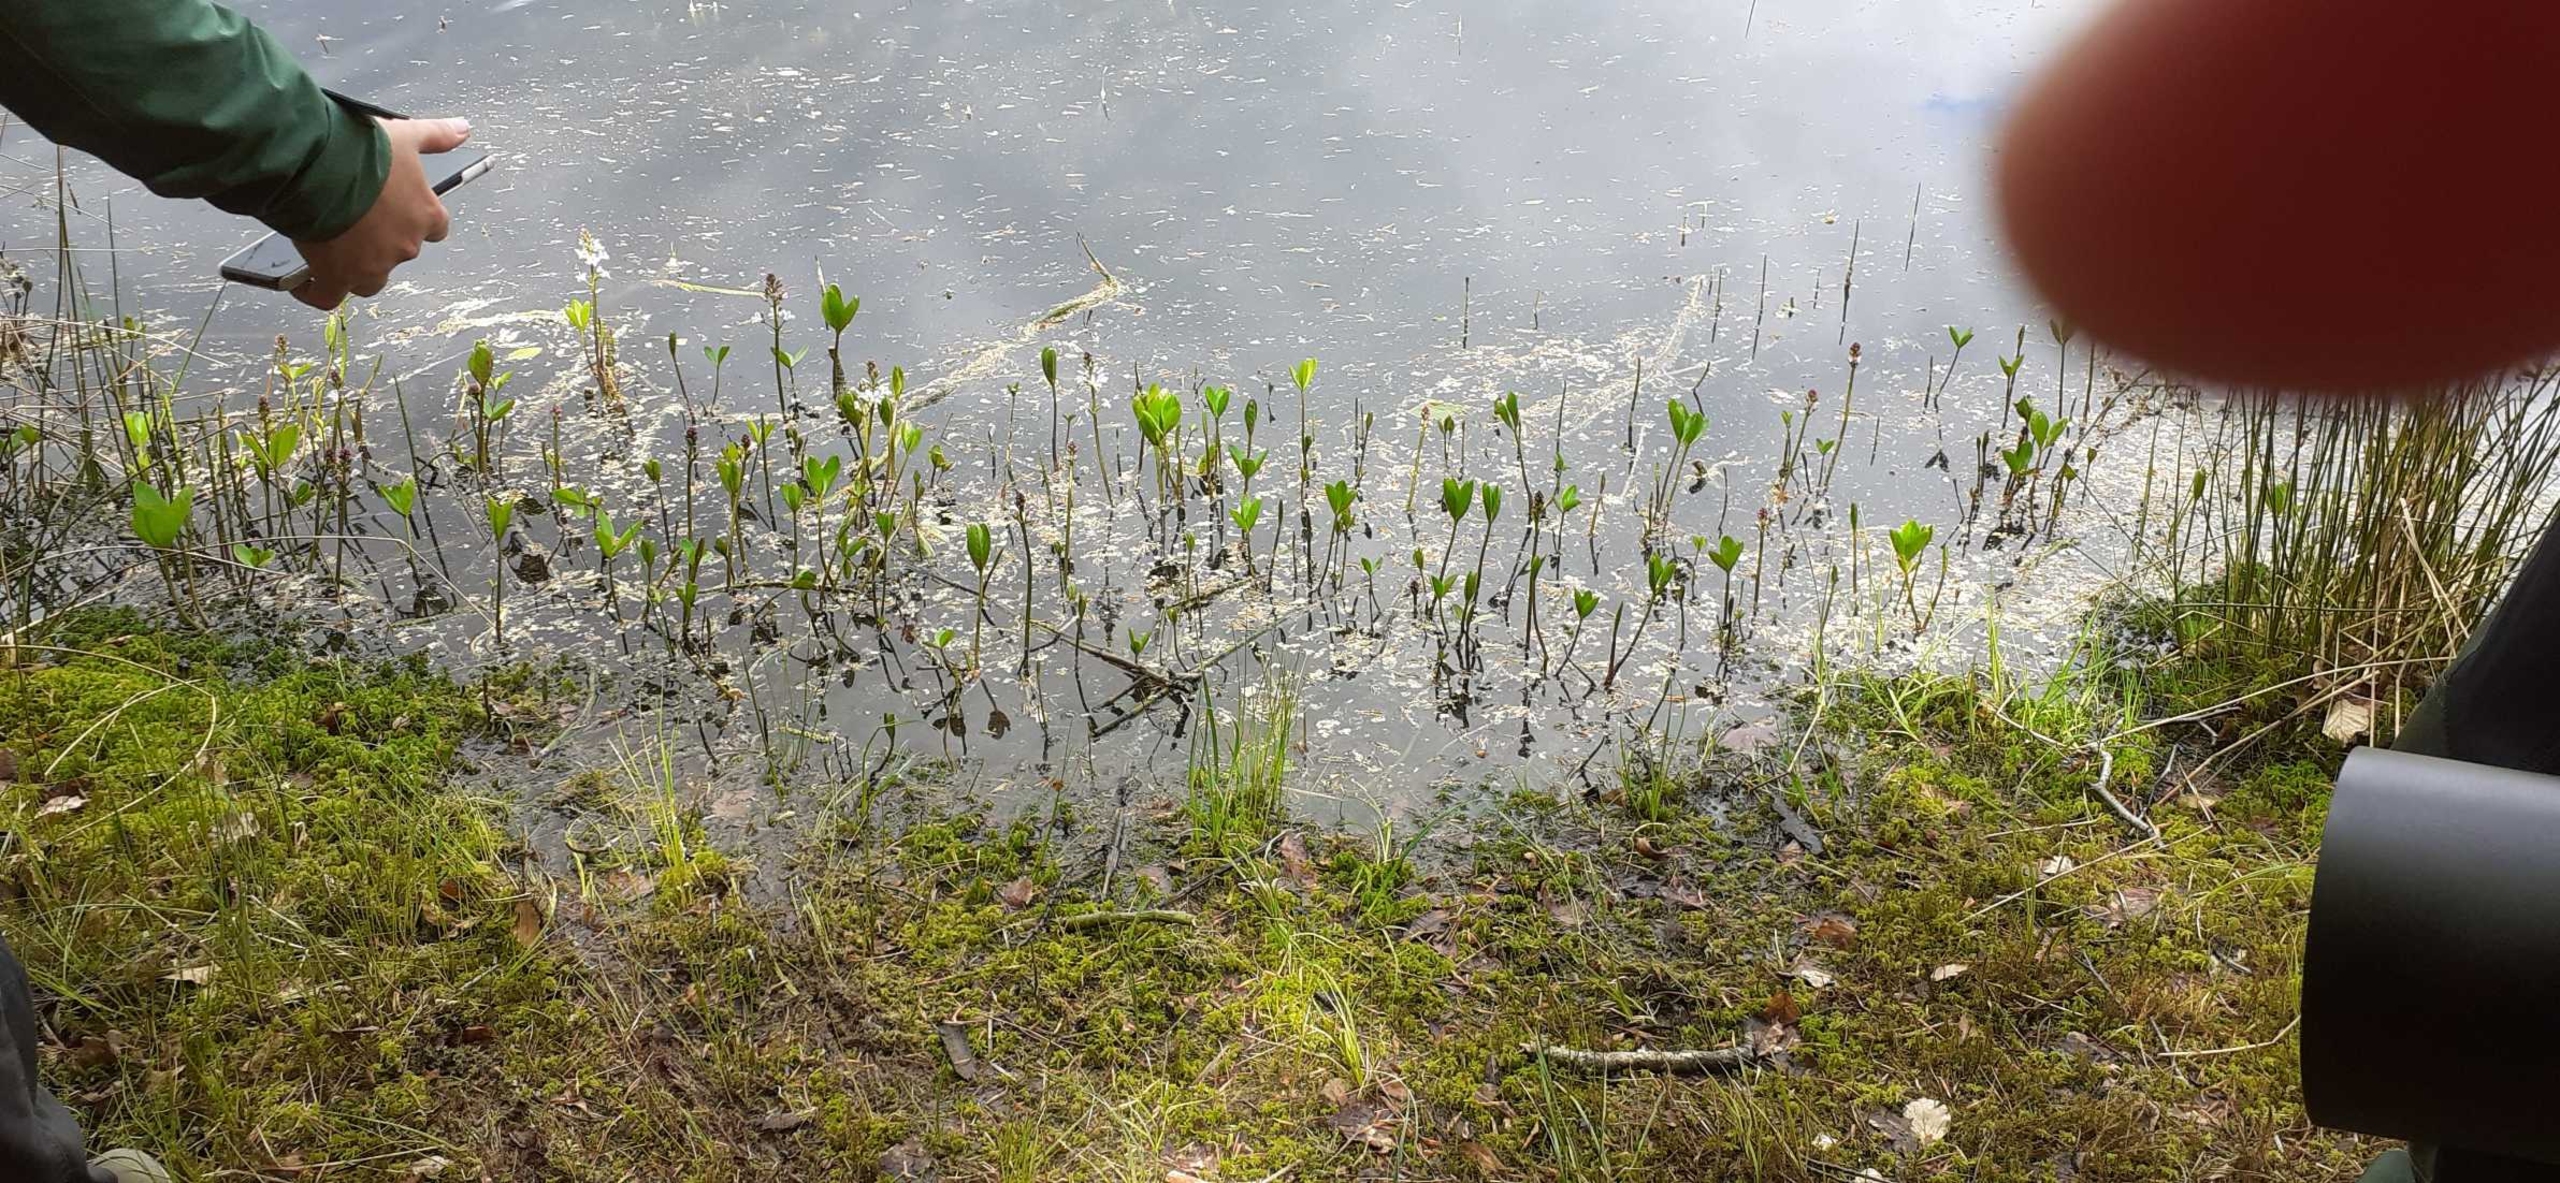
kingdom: Plantae
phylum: Tracheophyta
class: Magnoliopsida
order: Asterales
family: Menyanthaceae
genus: Menyanthes
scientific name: Menyanthes trifoliata
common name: Bukkeblad
